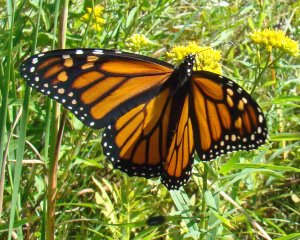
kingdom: Animalia
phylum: Arthropoda
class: Insecta
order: Lepidoptera
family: Nymphalidae
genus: Danaus
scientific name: Danaus plexippus
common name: Monarch
